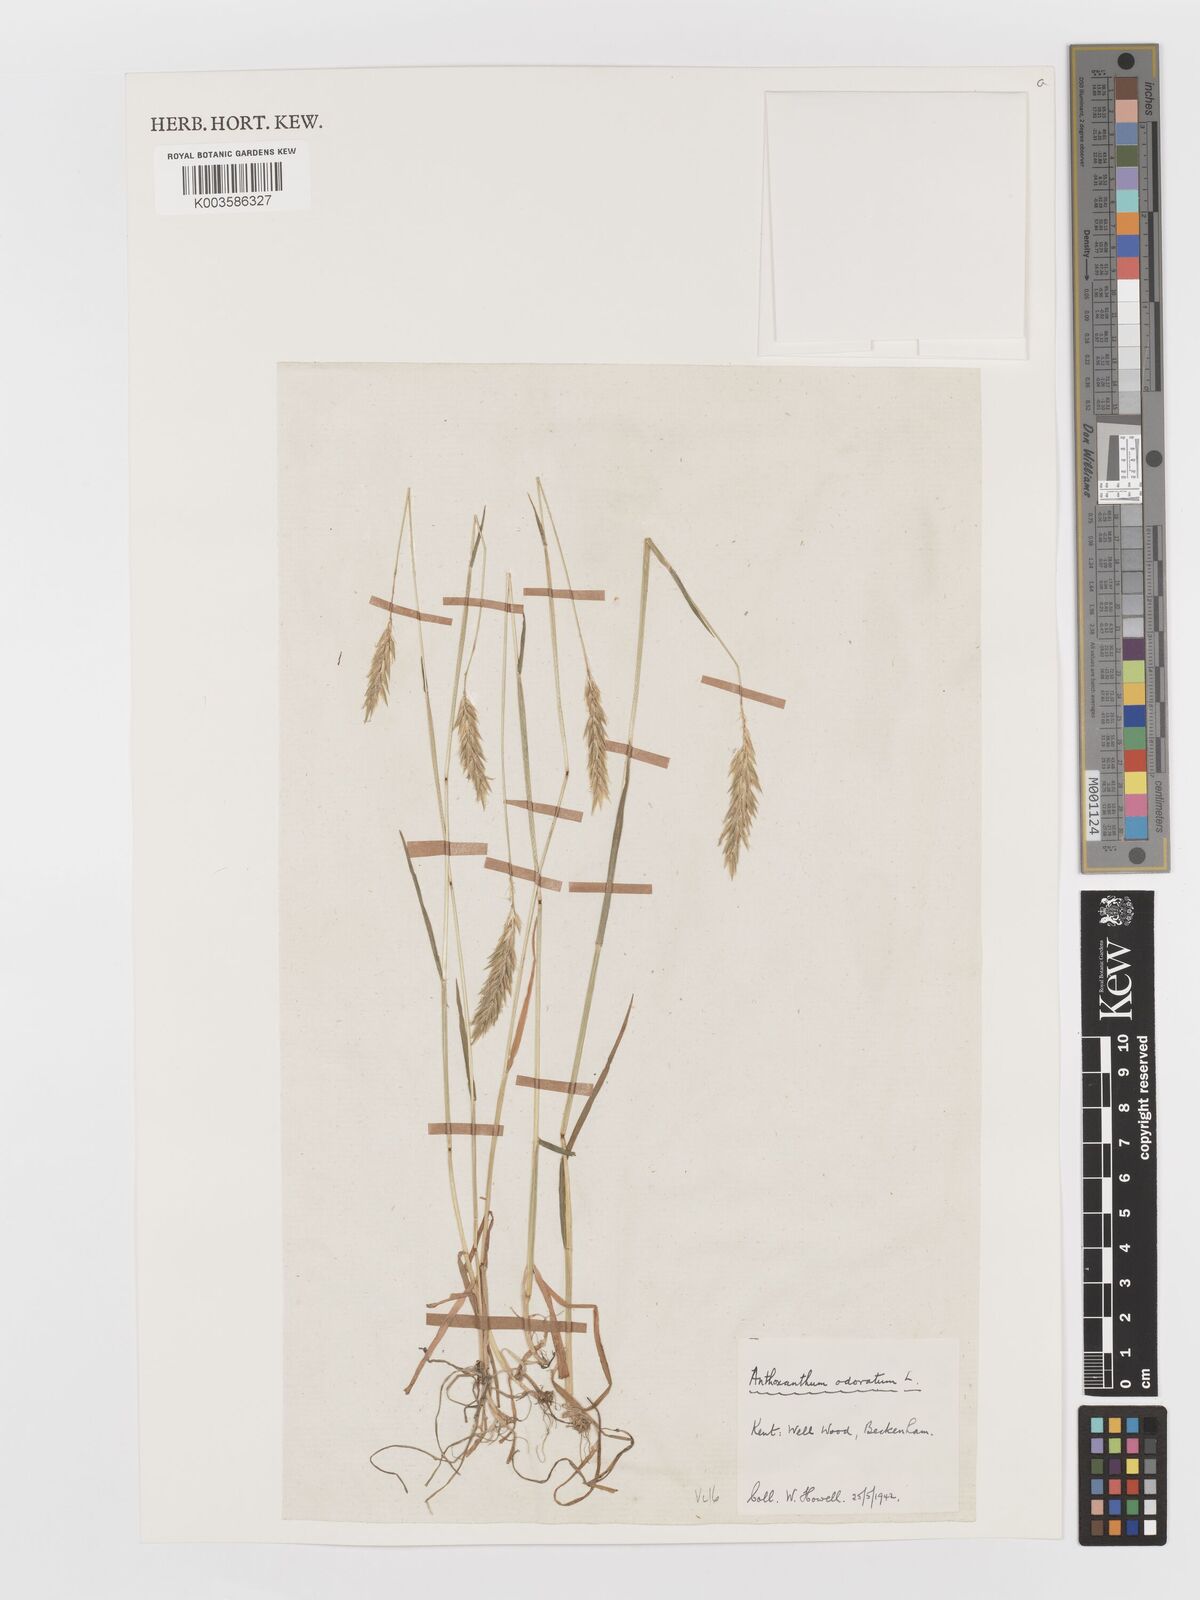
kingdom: Plantae
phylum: Tracheophyta
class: Liliopsida
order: Poales
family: Poaceae
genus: Anthoxanthum
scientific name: Anthoxanthum odoratum
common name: Sweet vernalgrass
